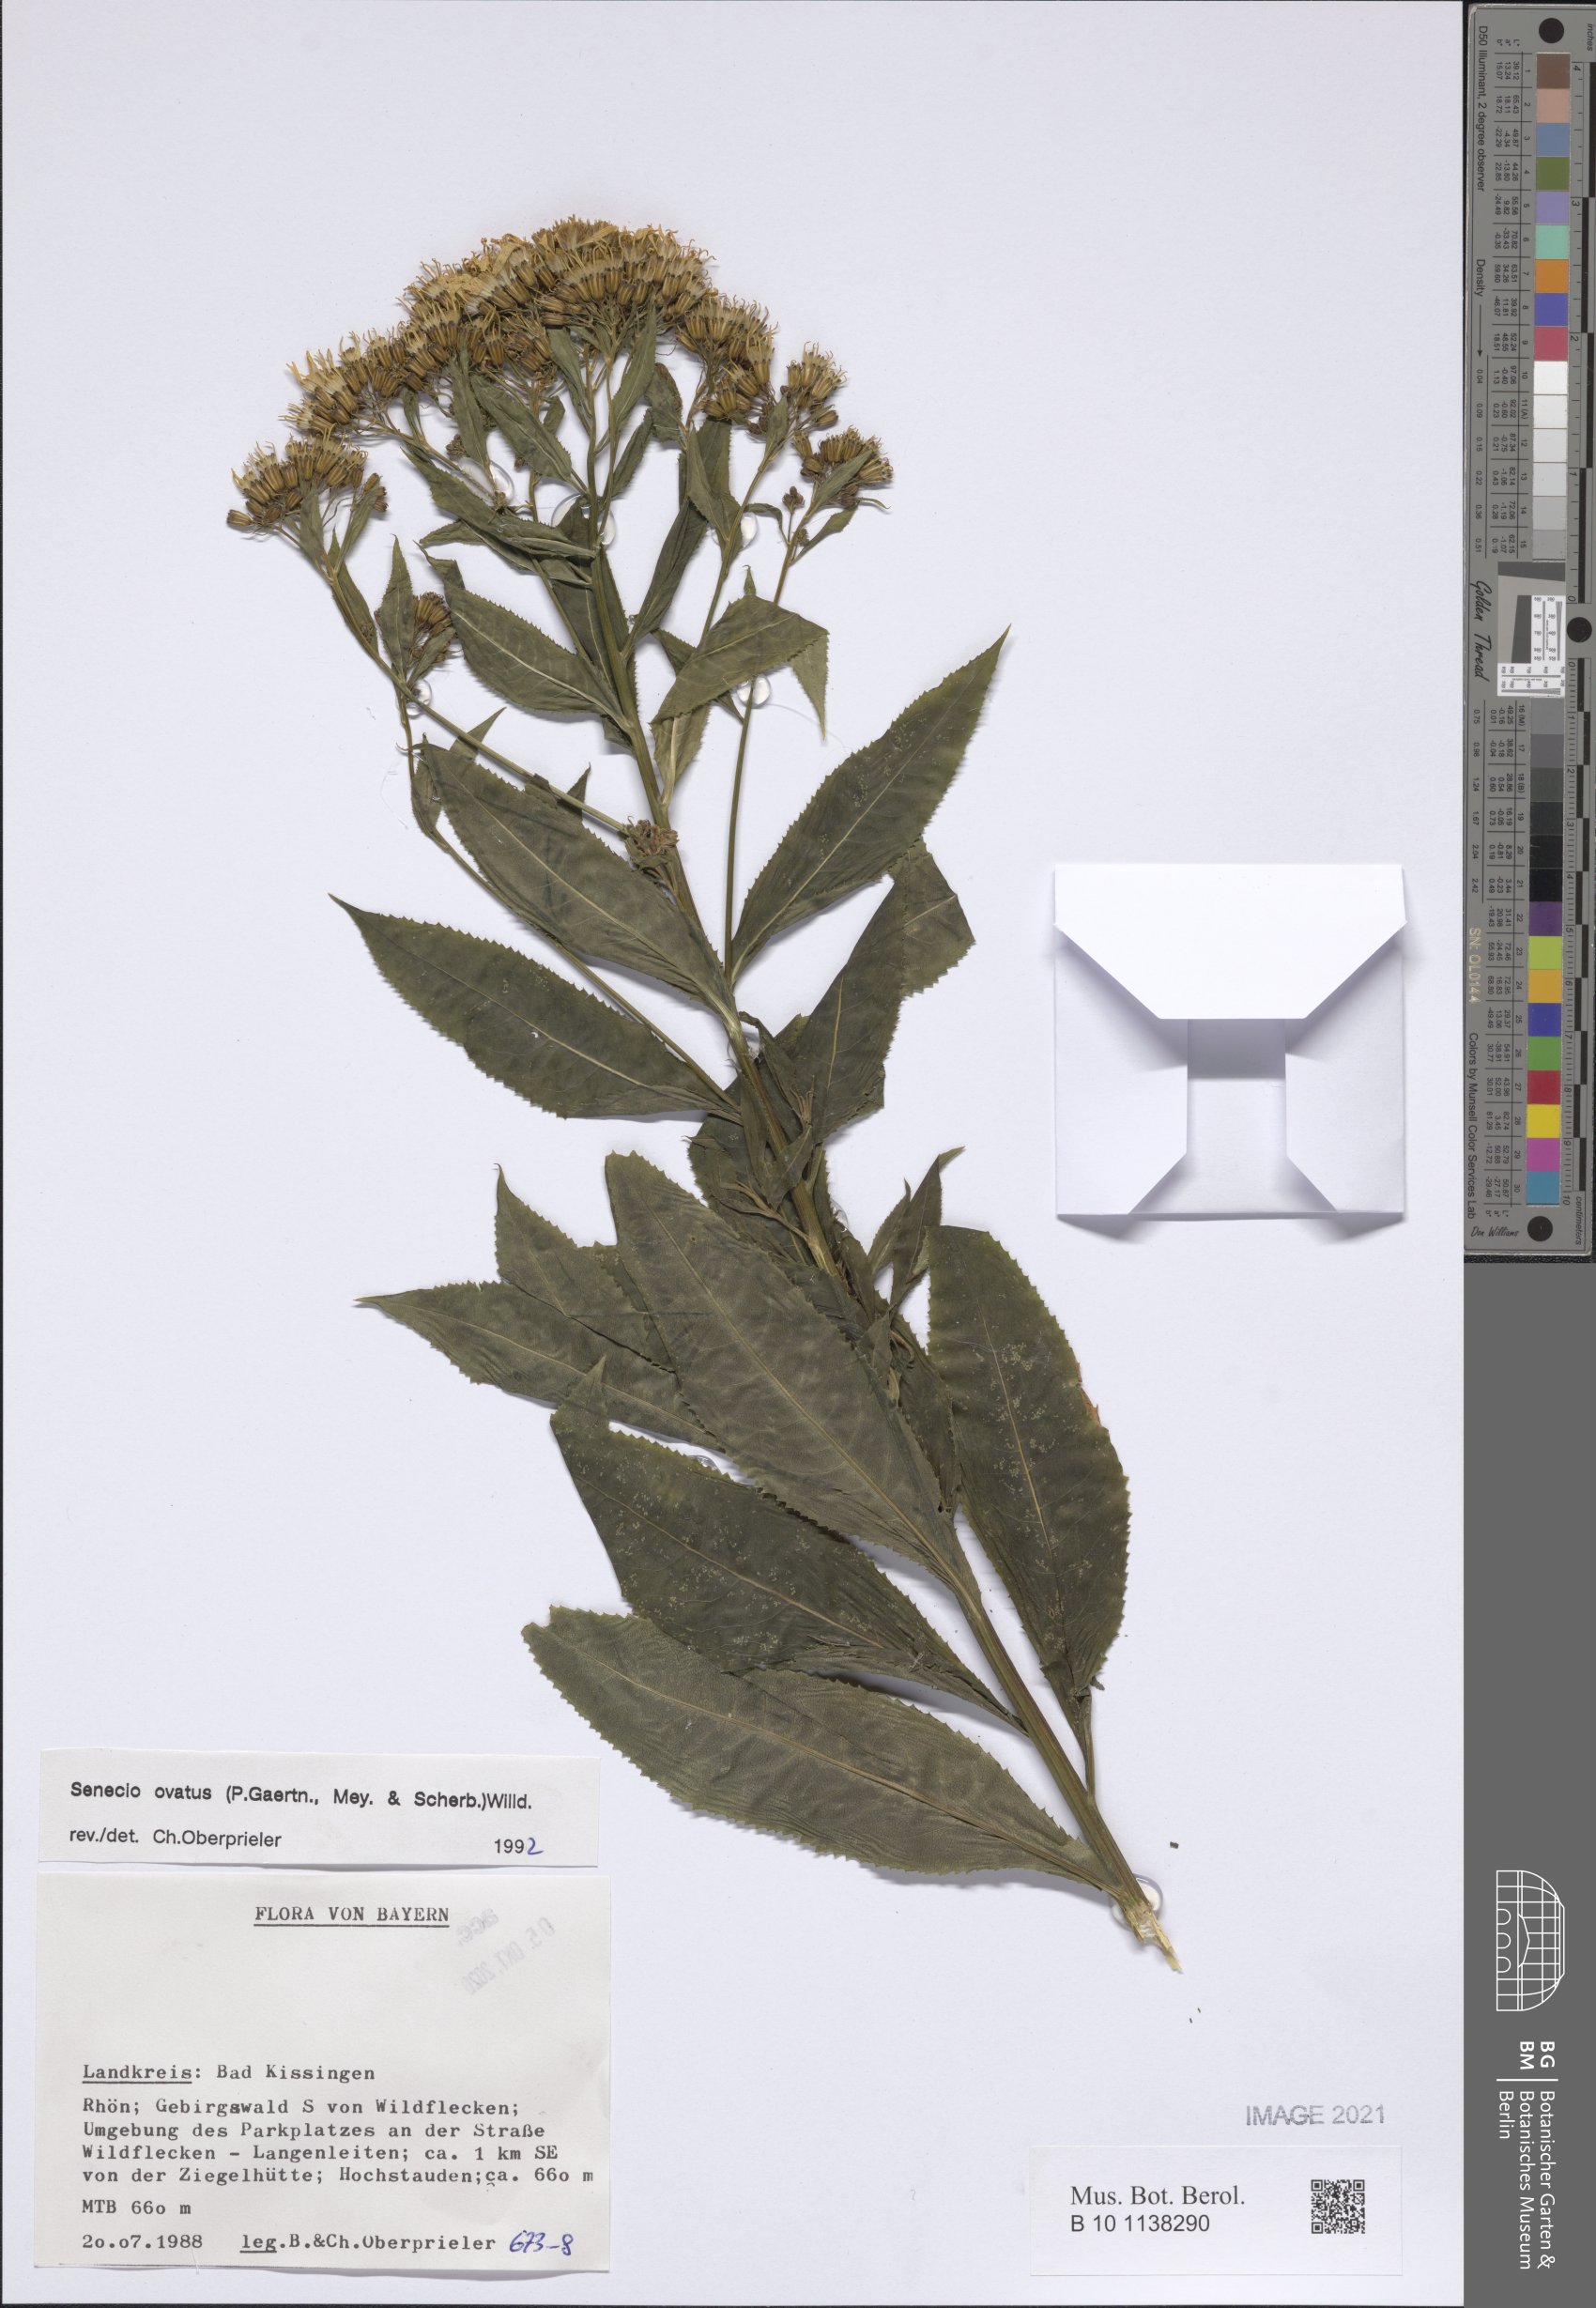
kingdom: Plantae
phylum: Tracheophyta
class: Magnoliopsida
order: Asterales
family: Asteraceae
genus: Senecio
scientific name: Senecio ovatus
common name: Wood ragwort
